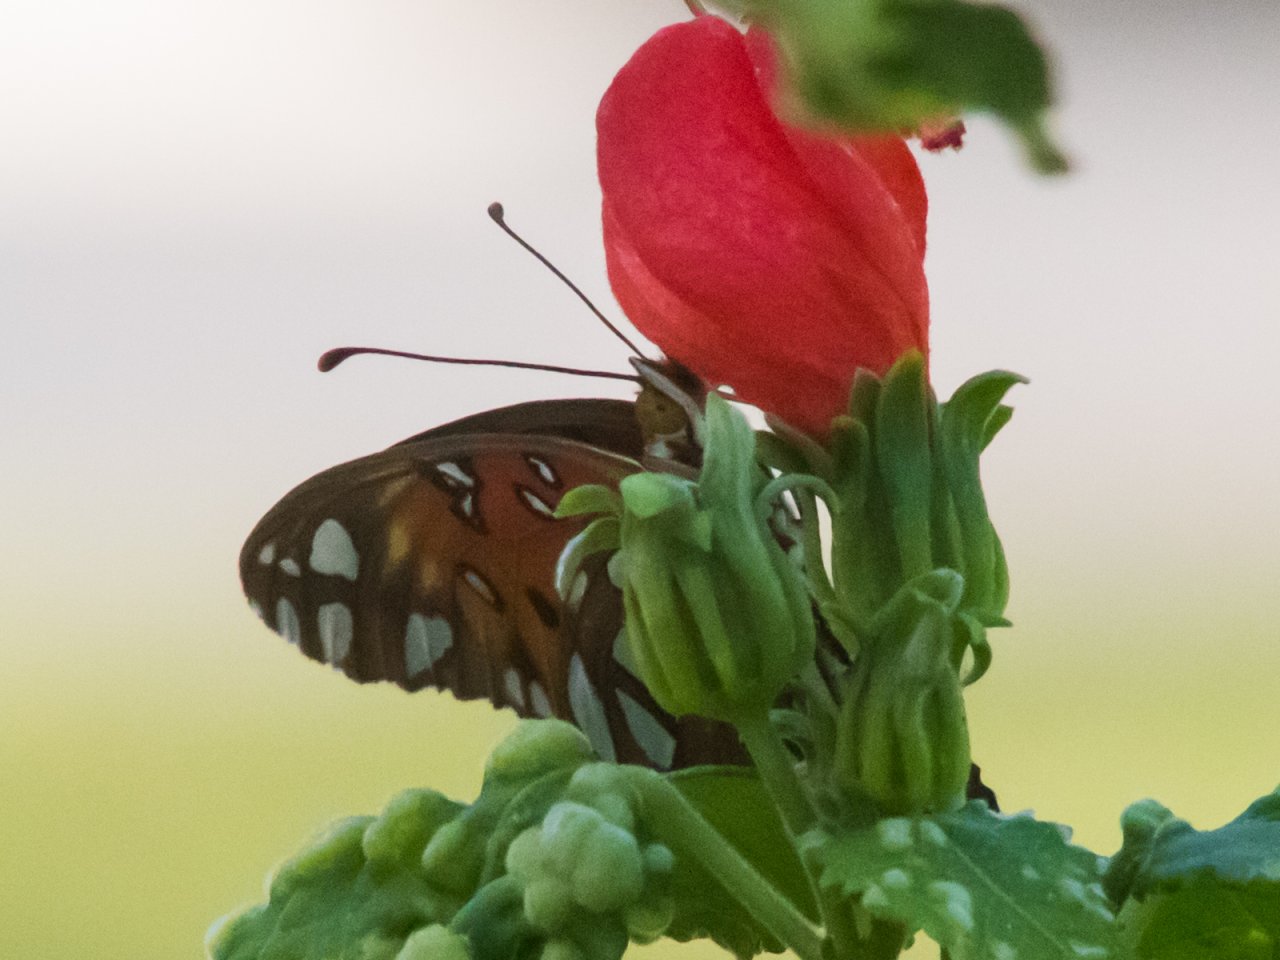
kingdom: Animalia
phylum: Arthropoda
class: Insecta
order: Lepidoptera
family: Nymphalidae
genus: Dione
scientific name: Dione vanillae
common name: Gulf Fritillary
